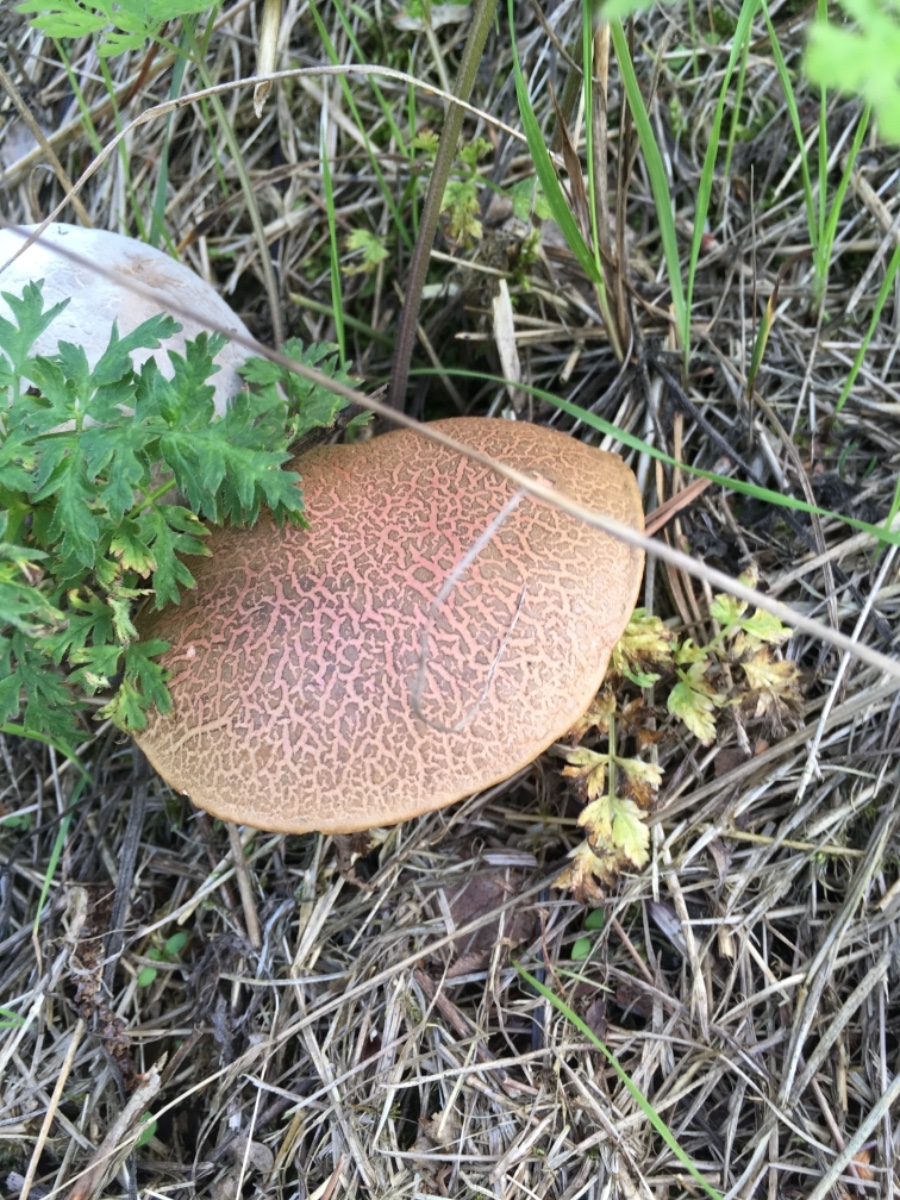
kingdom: Fungi
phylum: Basidiomycota
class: Agaricomycetes
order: Boletales
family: Boletaceae
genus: Xerocomellus
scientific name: Xerocomellus chrysenteron
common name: rødsprukken rørhat
